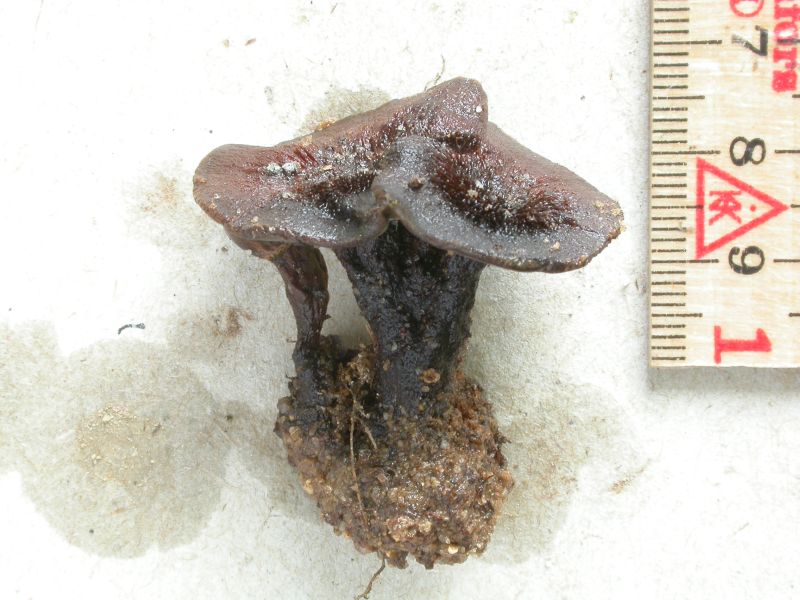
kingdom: Fungi
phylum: Basidiomycota
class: Agaricomycetes
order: Hymenochaetales
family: Hymenochaetaceae
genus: Coltricia
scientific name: Coltricia confluens
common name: park-sandporesvamp
